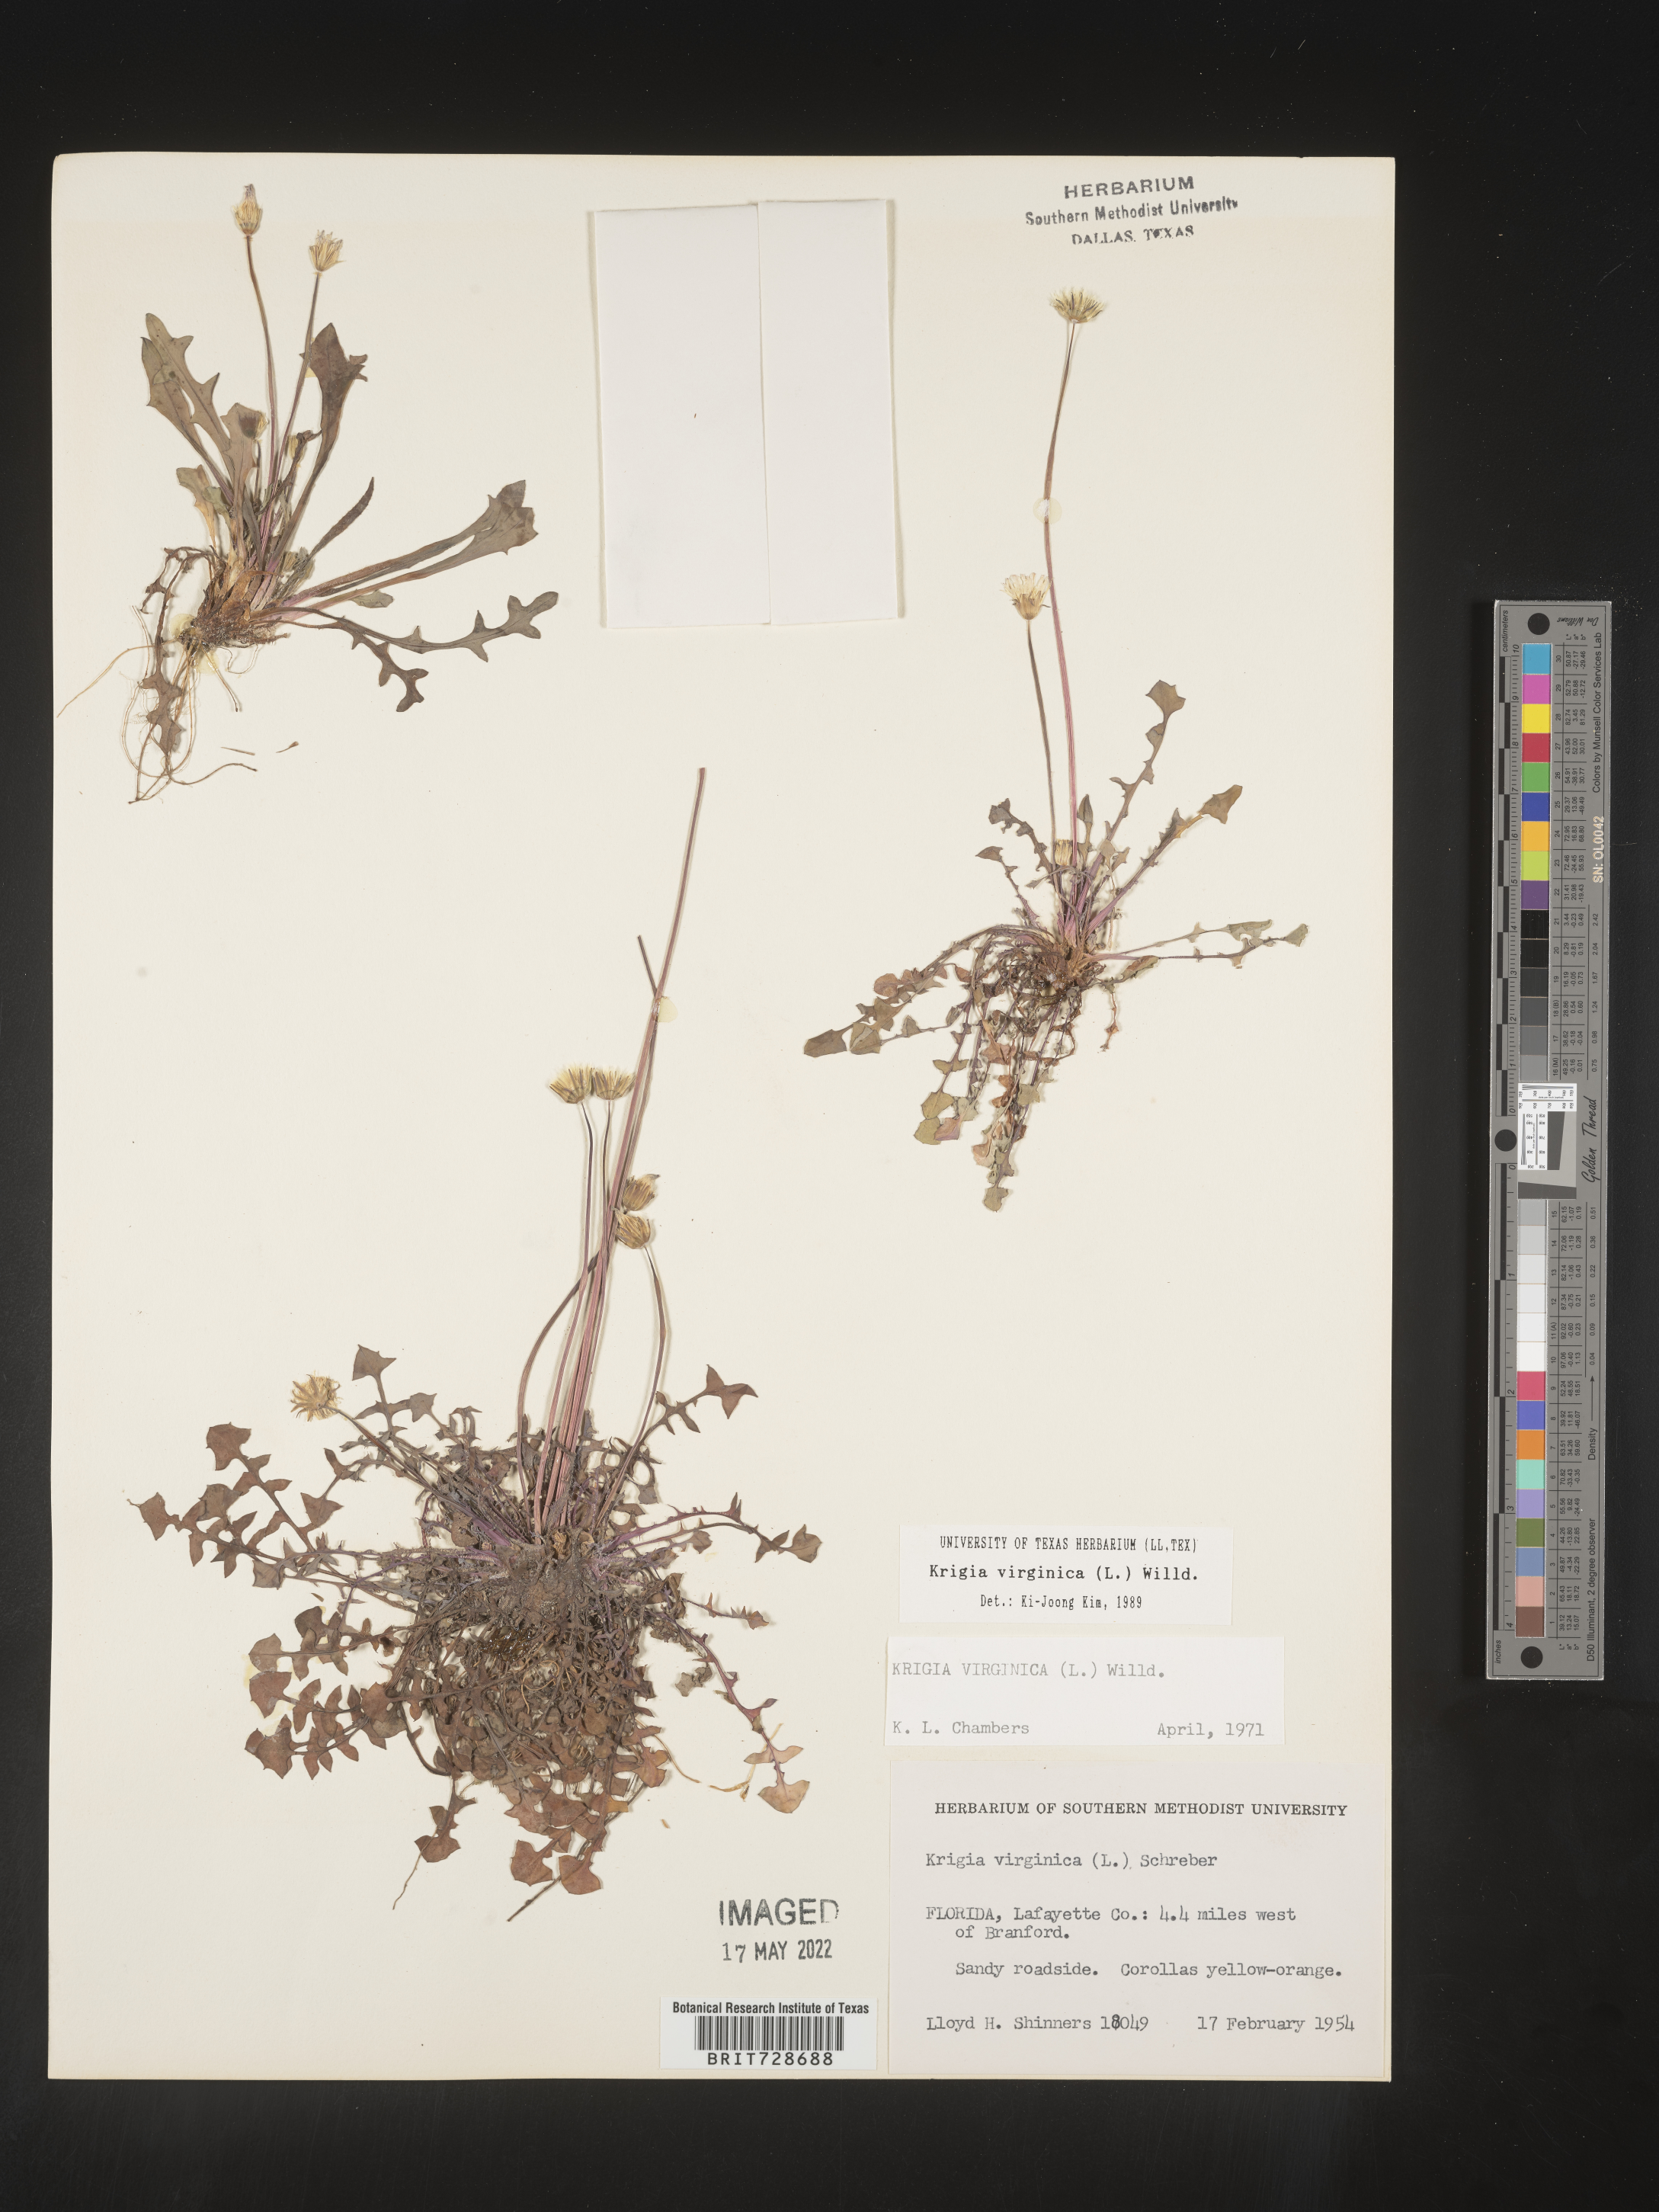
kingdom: Plantae
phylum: Tracheophyta
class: Magnoliopsida
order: Asterales
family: Asteraceae
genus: Krigia
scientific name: Krigia virginica
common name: Virginia dwarf-dandelion
